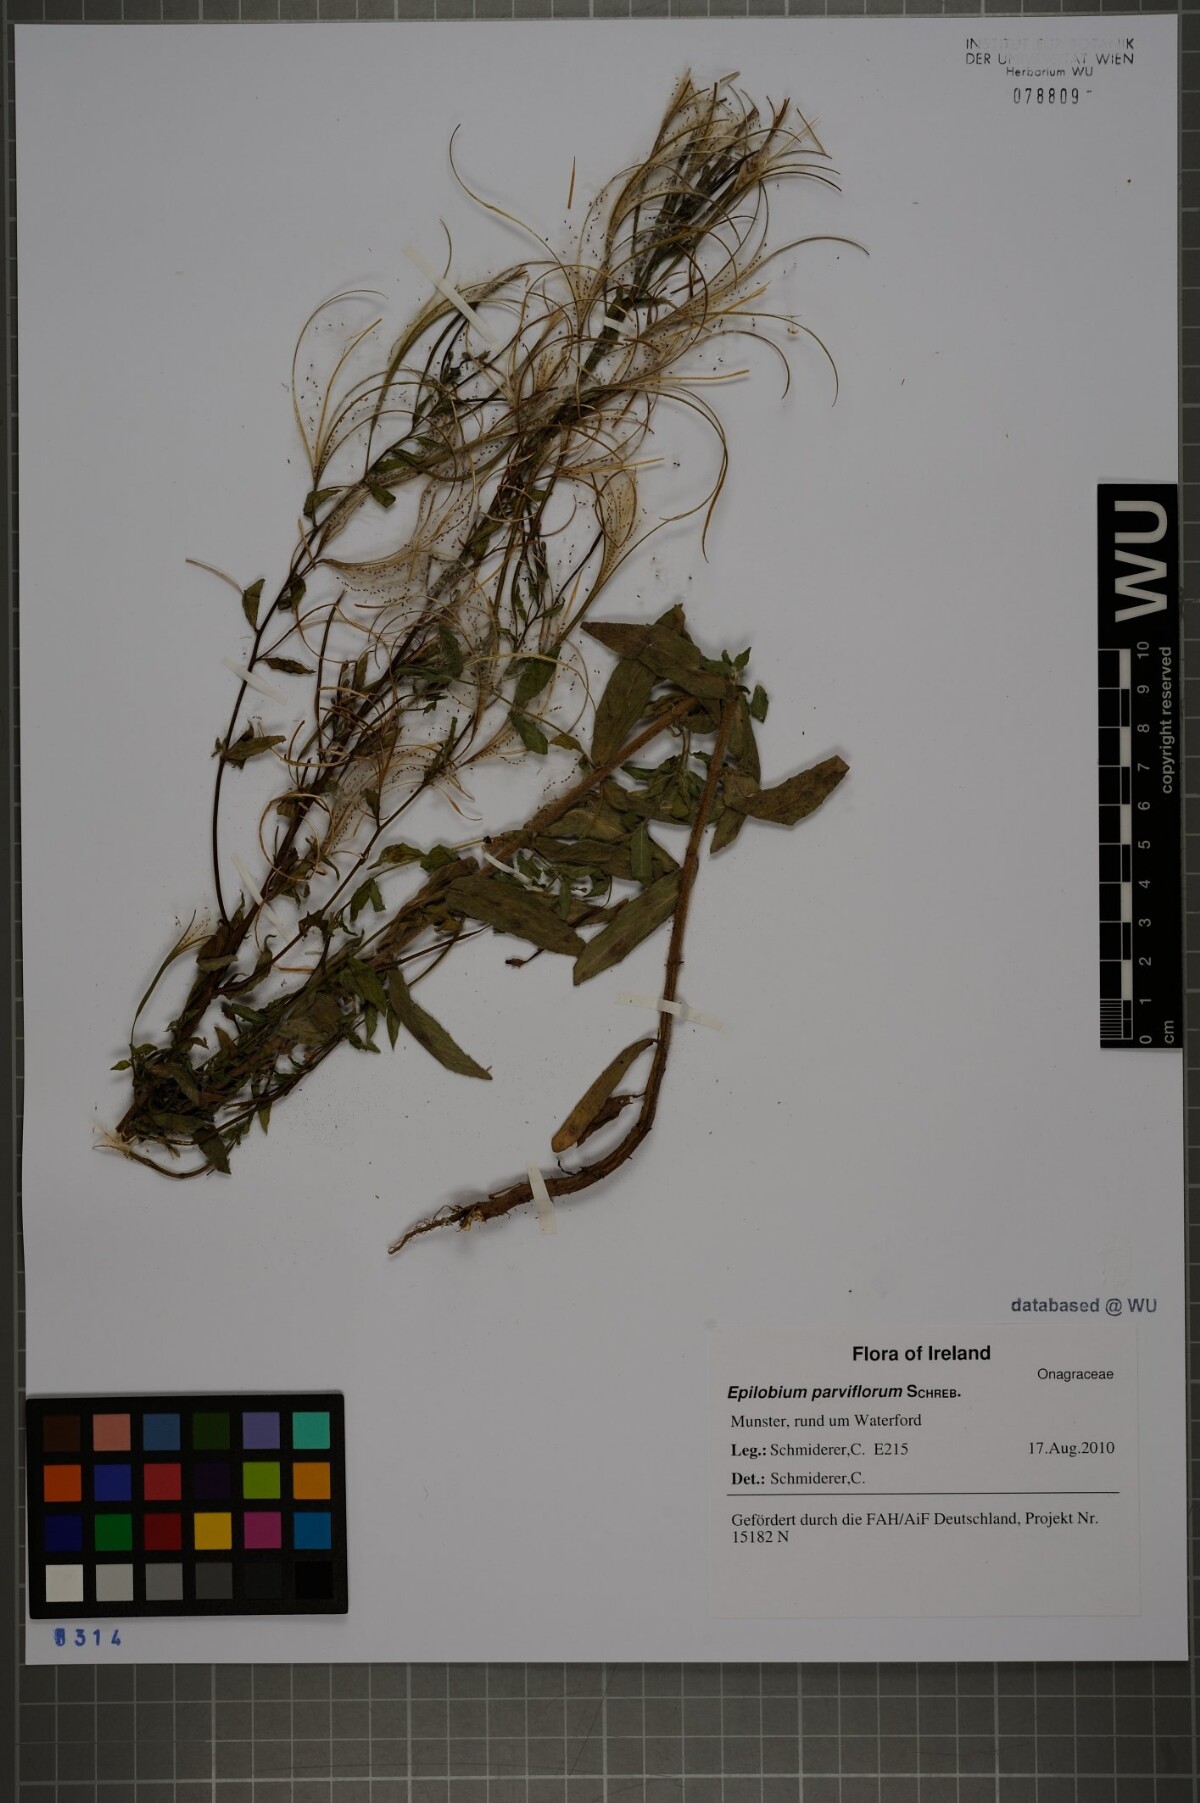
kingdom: Plantae
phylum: Tracheophyta
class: Magnoliopsida
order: Myrtales
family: Onagraceae
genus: Epilobium
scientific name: Epilobium parviflorum
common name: Hoary willowherb
